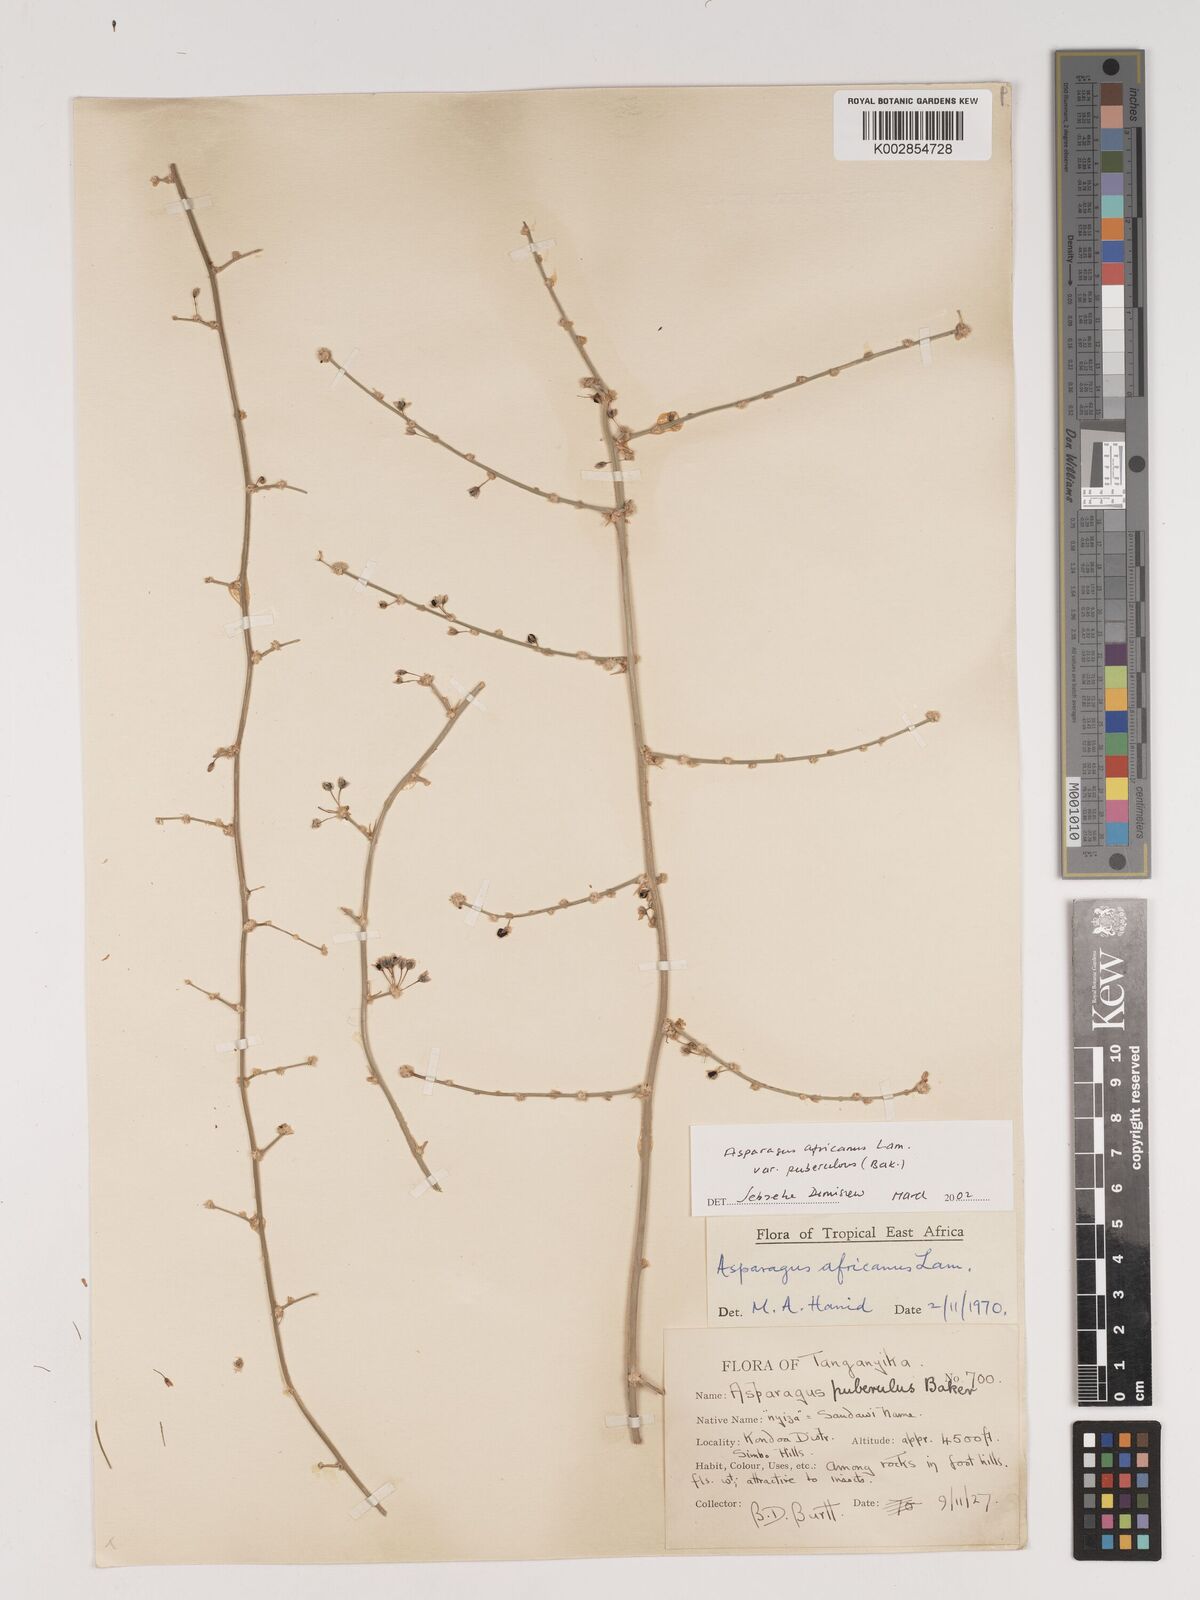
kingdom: Plantae
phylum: Tracheophyta
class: Liliopsida
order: Asparagales
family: Asparagaceae
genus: Asparagus
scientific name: Asparagus africanus
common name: Asparagus-fern
